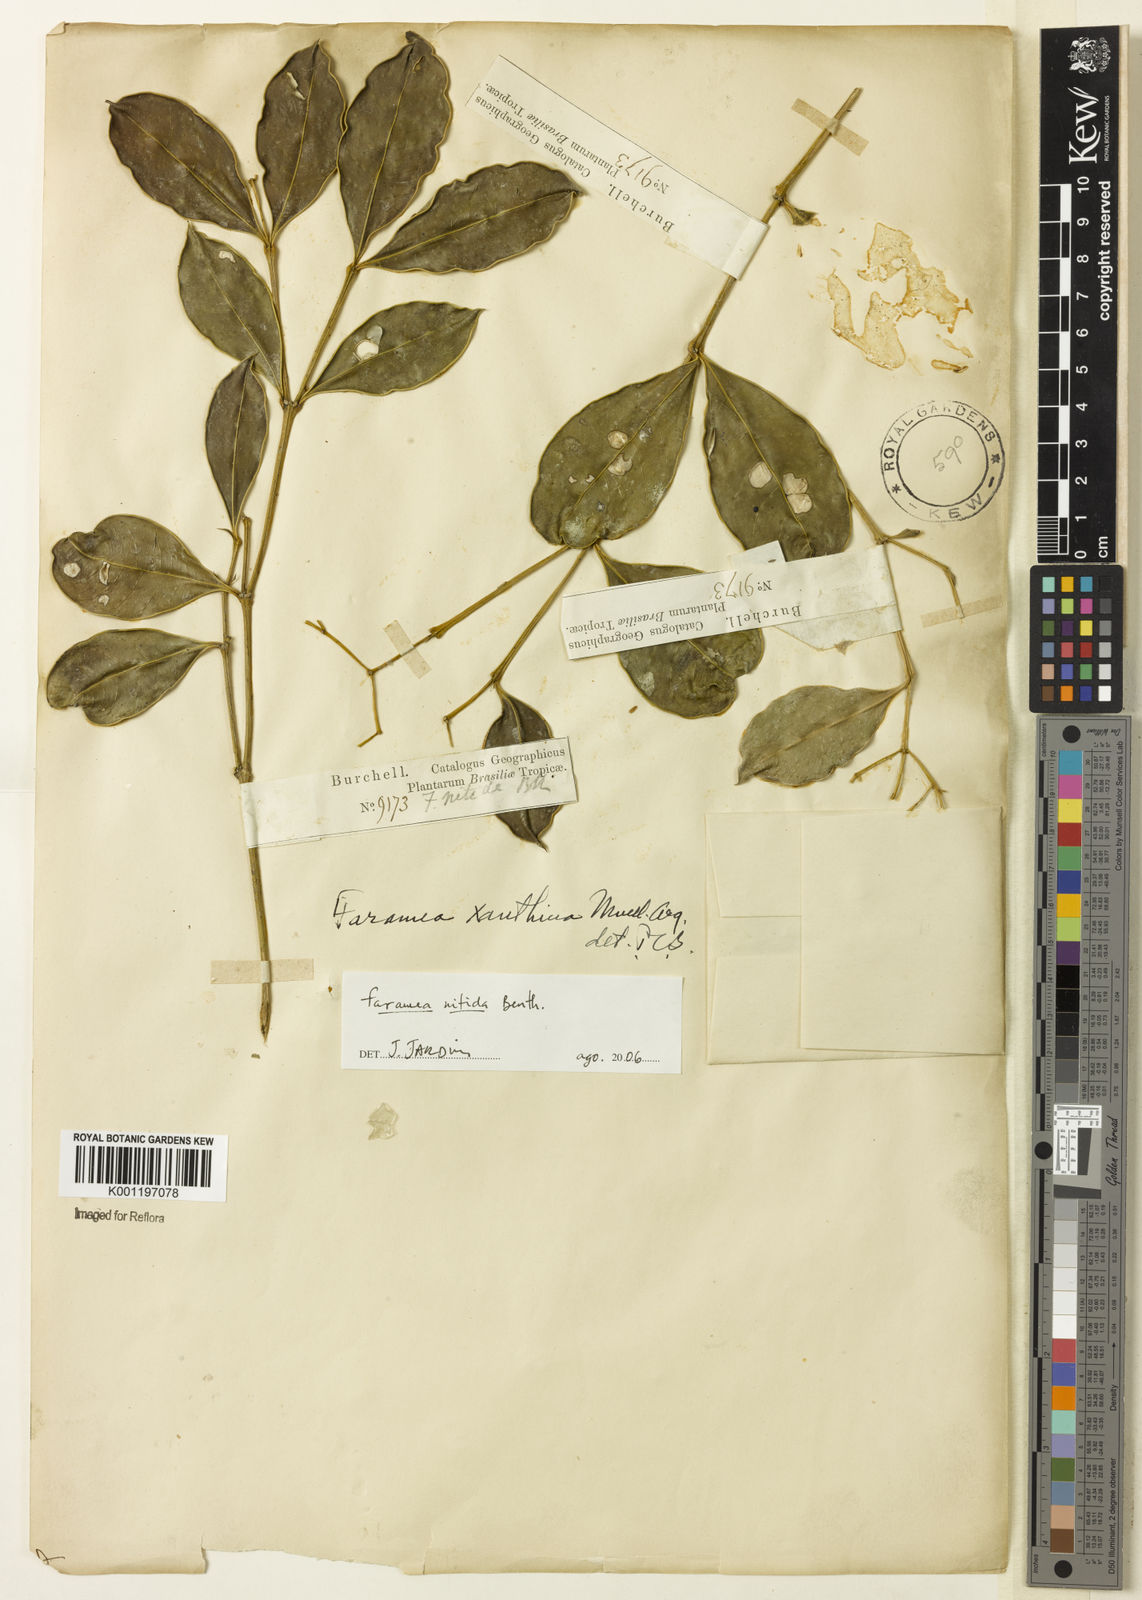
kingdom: Plantae
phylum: Tracheophyta
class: Magnoliopsida
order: Gentianales
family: Rubiaceae
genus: Faramea
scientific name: Faramea nitida
